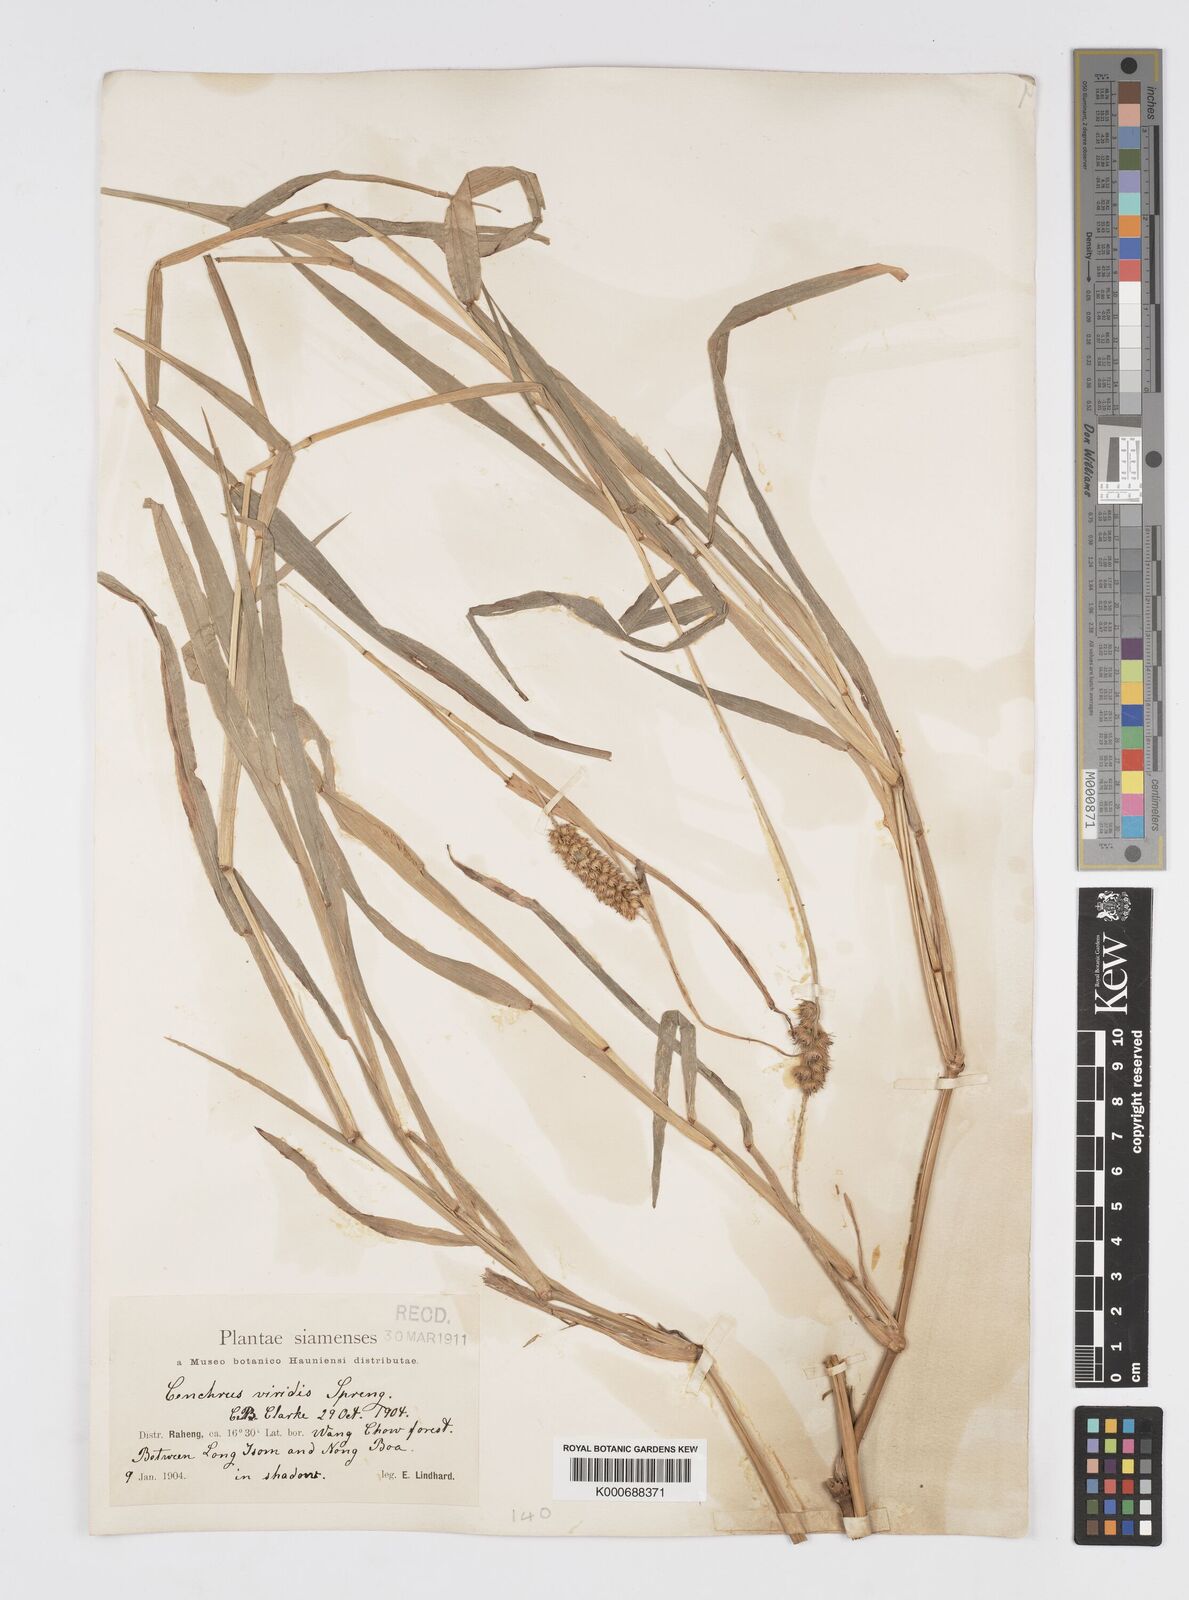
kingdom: Plantae
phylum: Tracheophyta
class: Liliopsida
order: Poales
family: Poaceae
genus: Cenchrus
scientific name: Cenchrus brownii
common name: Slim-bristle sandbur
